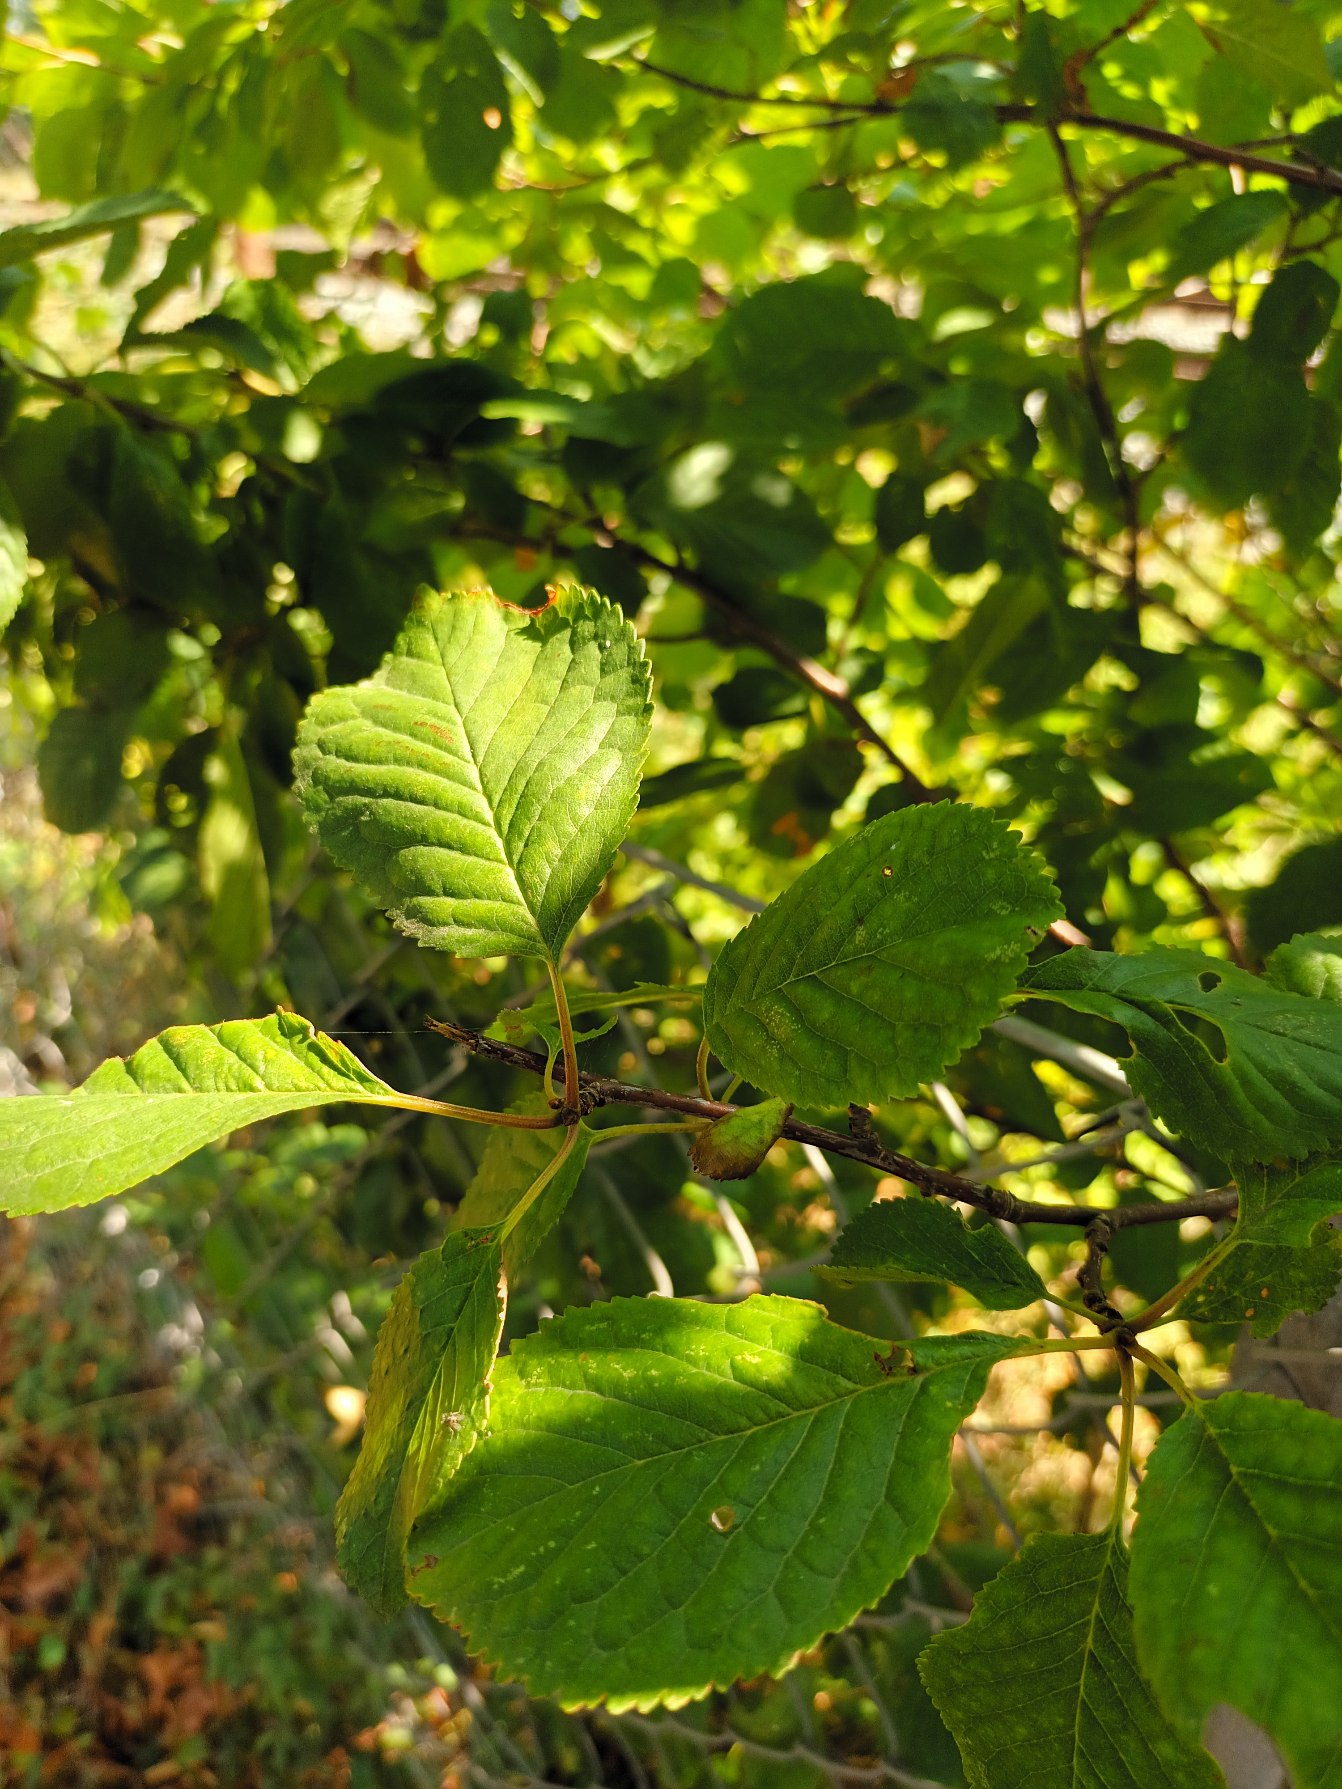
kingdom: Plantae
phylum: Tracheophyta
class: Magnoliopsida
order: Rosales
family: Rosaceae
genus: Prunus
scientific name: Prunus cerasus
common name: Sur-kirsebær
